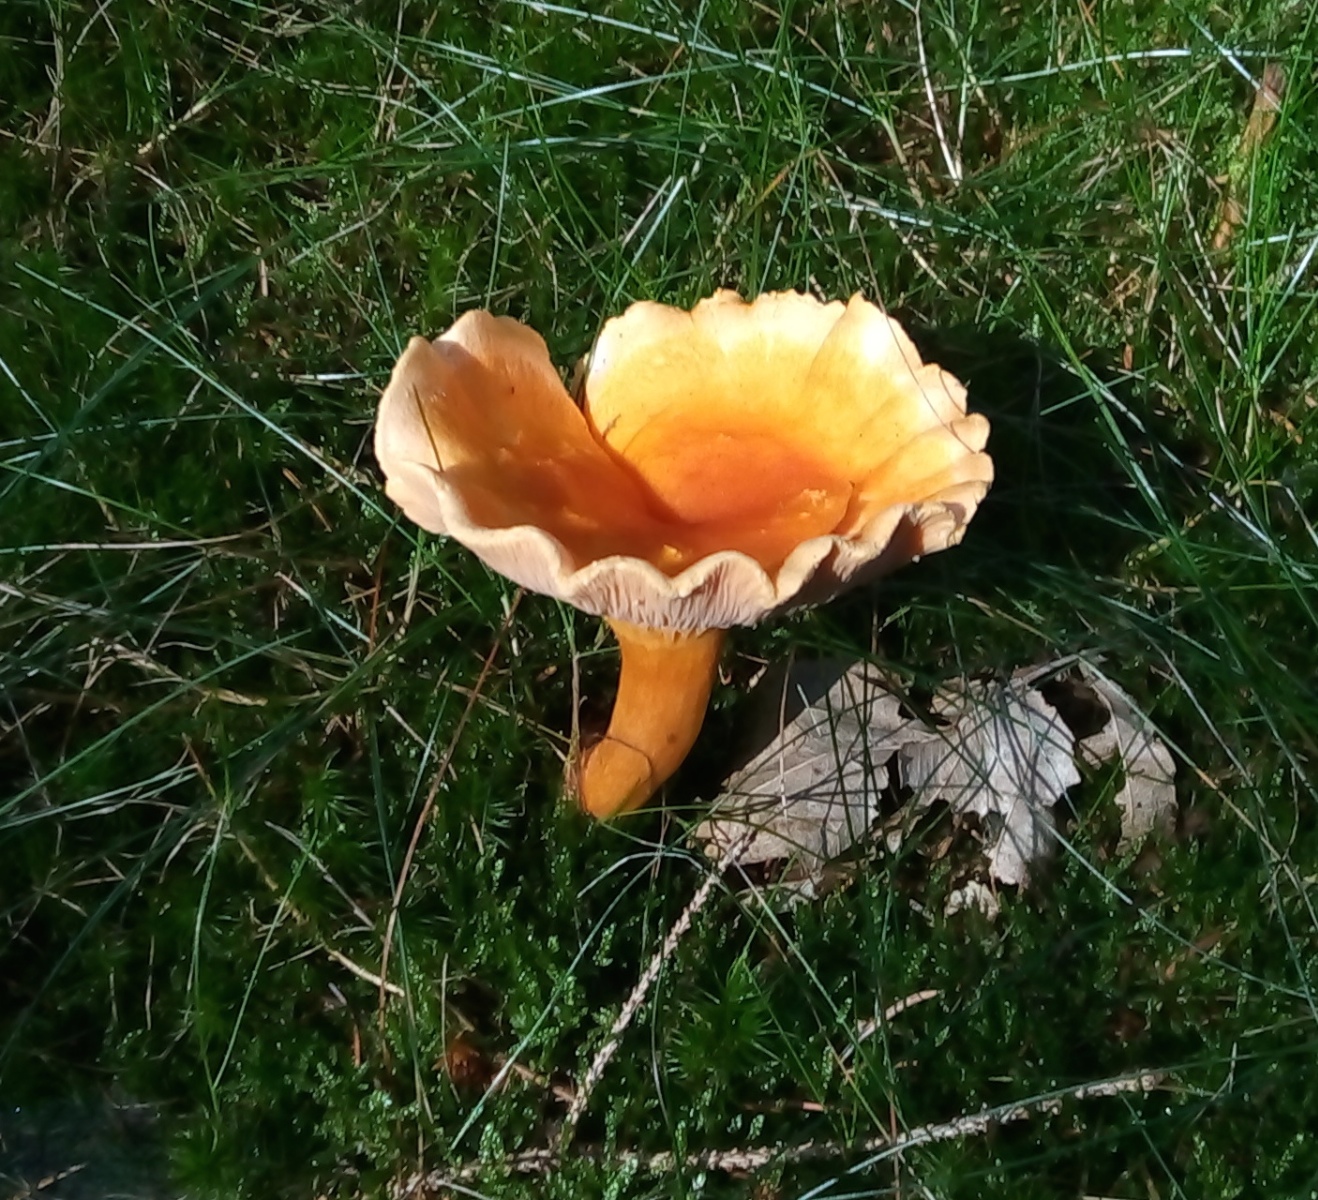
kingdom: Fungi
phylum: Basidiomycota
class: Agaricomycetes
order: Boletales
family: Hygrophoropsidaceae
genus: Hygrophoropsis
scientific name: Hygrophoropsis aurantiaca
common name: almindelig orangekantarel
